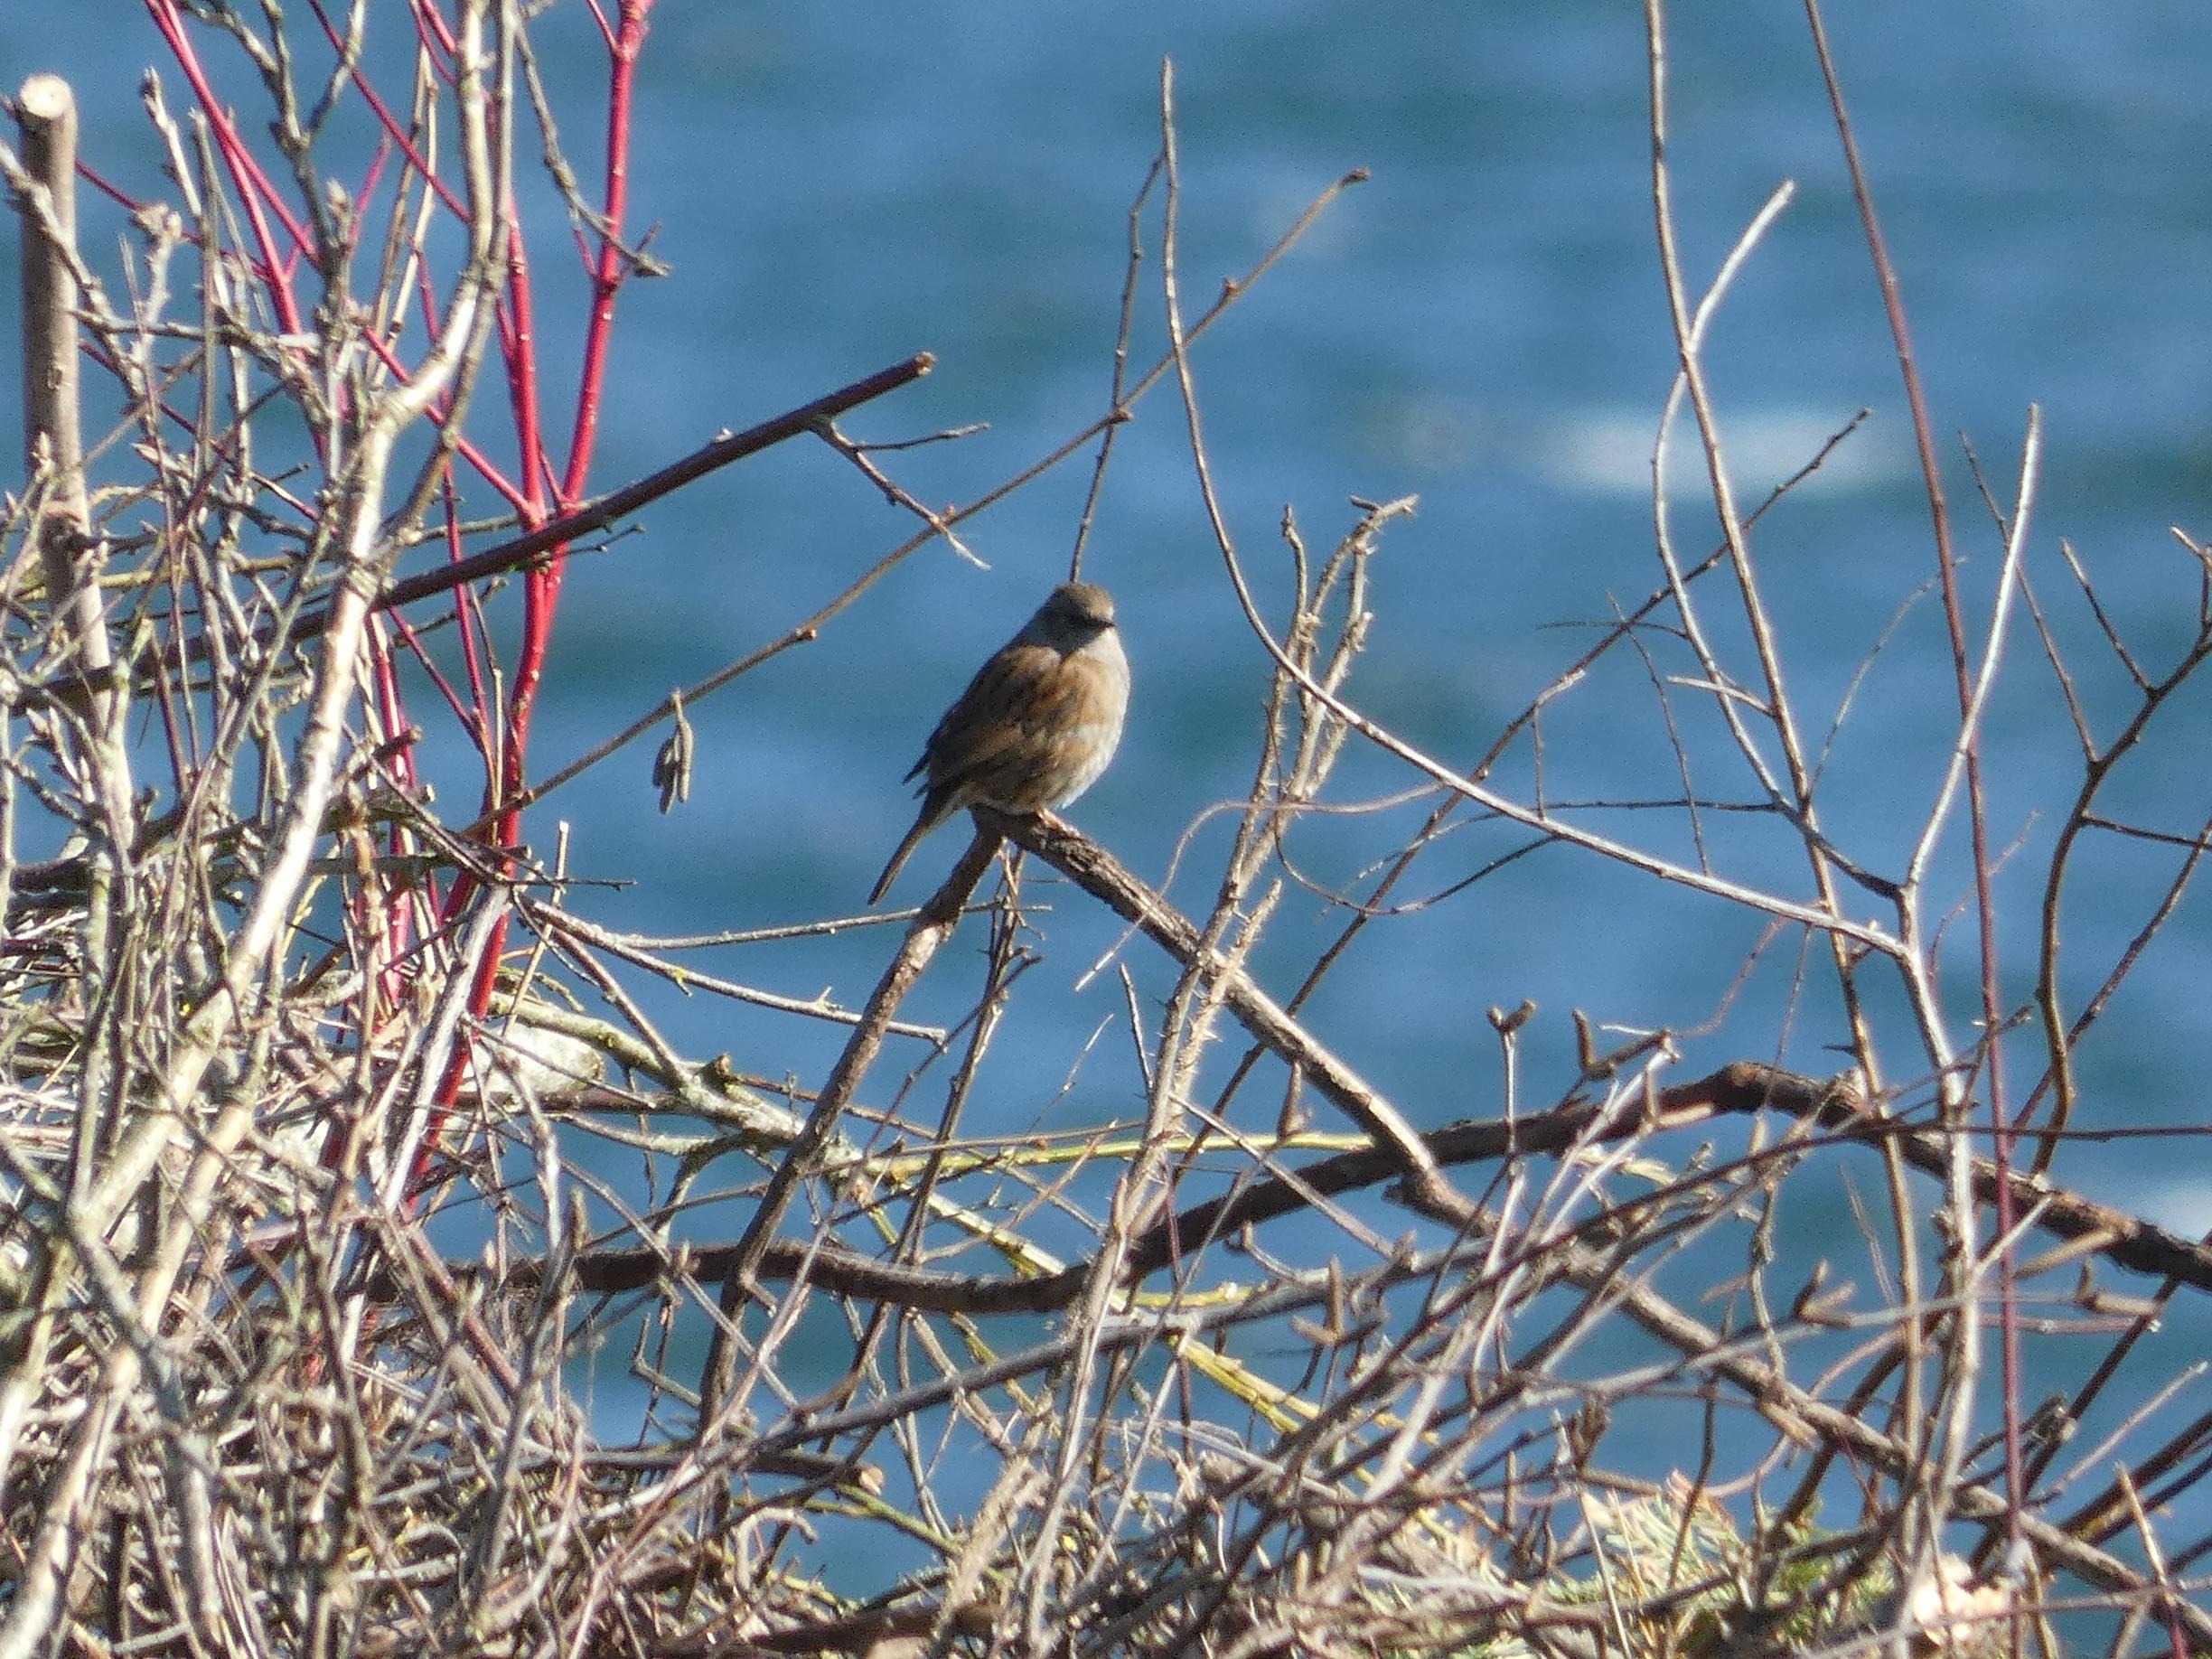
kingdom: Animalia
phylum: Chordata
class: Aves
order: Passeriformes
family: Prunellidae
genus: Prunella
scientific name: Prunella modularis
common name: Jernspurv
